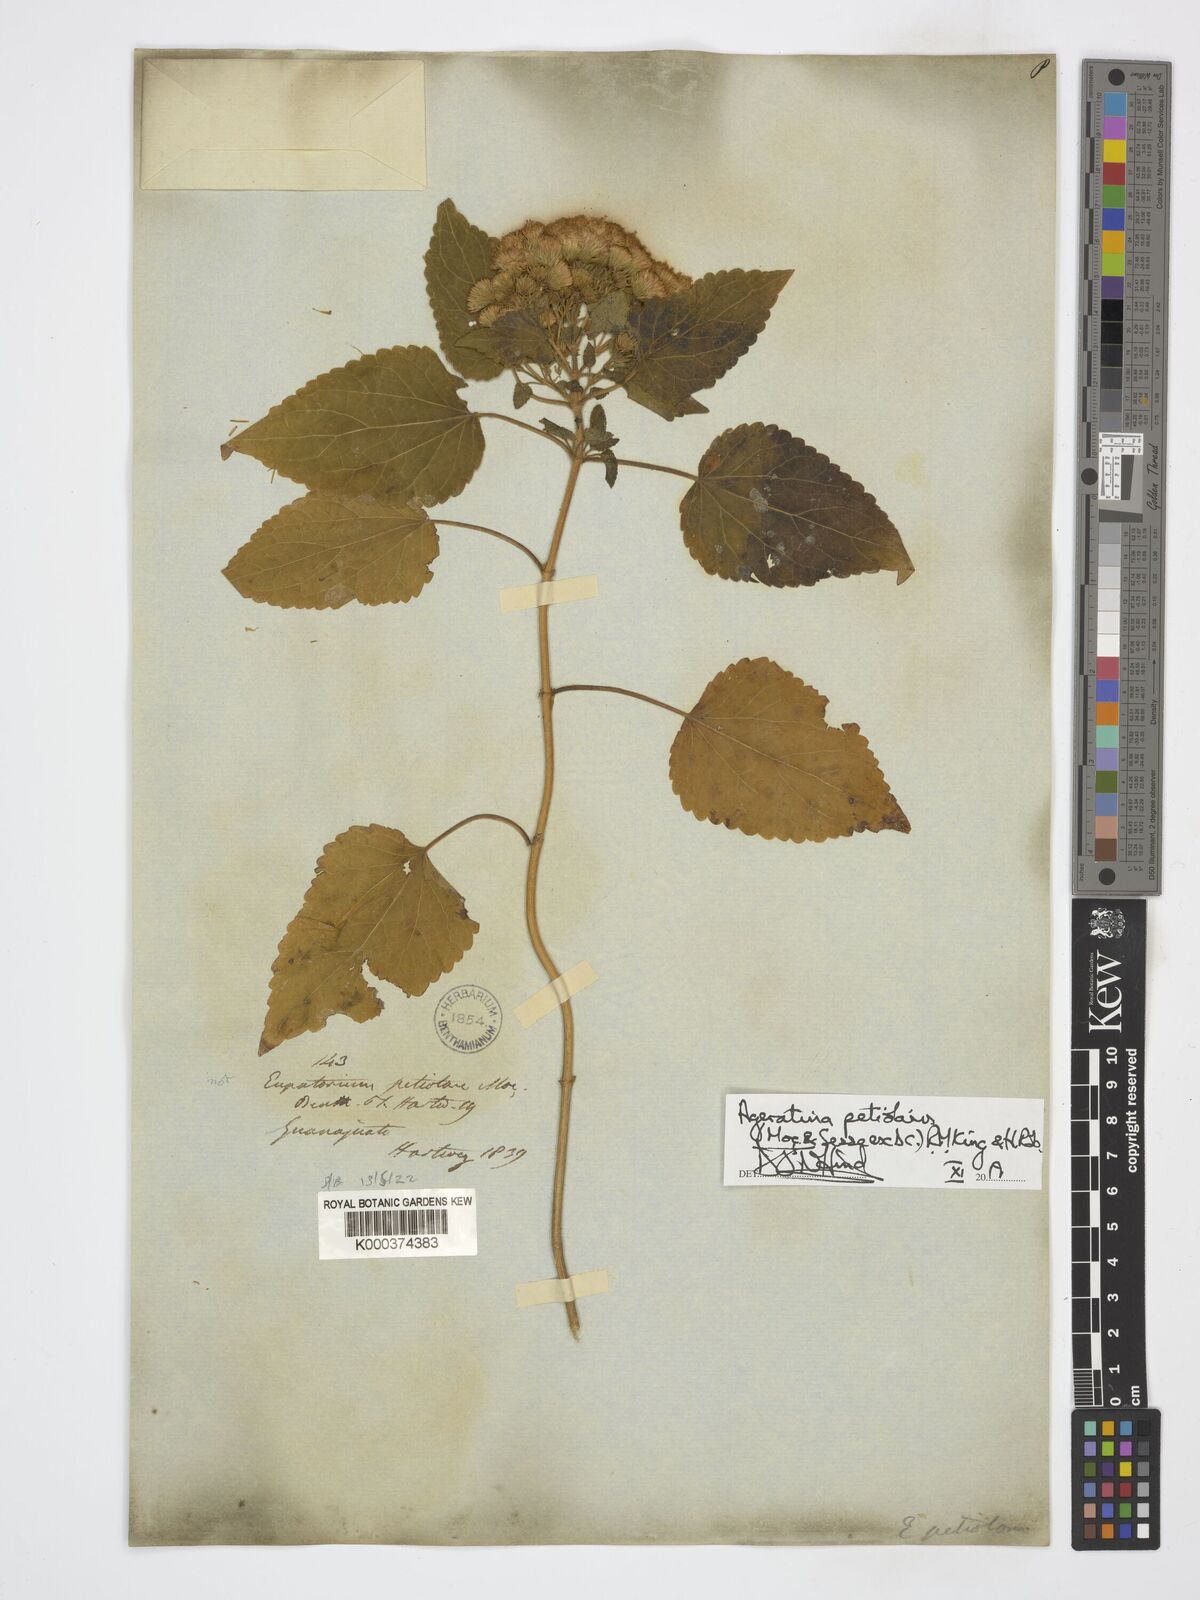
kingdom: Plantae
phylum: Tracheophyta
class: Magnoliopsida
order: Asterales
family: Asteraceae
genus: Ageratina
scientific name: Ageratina petiolaris
